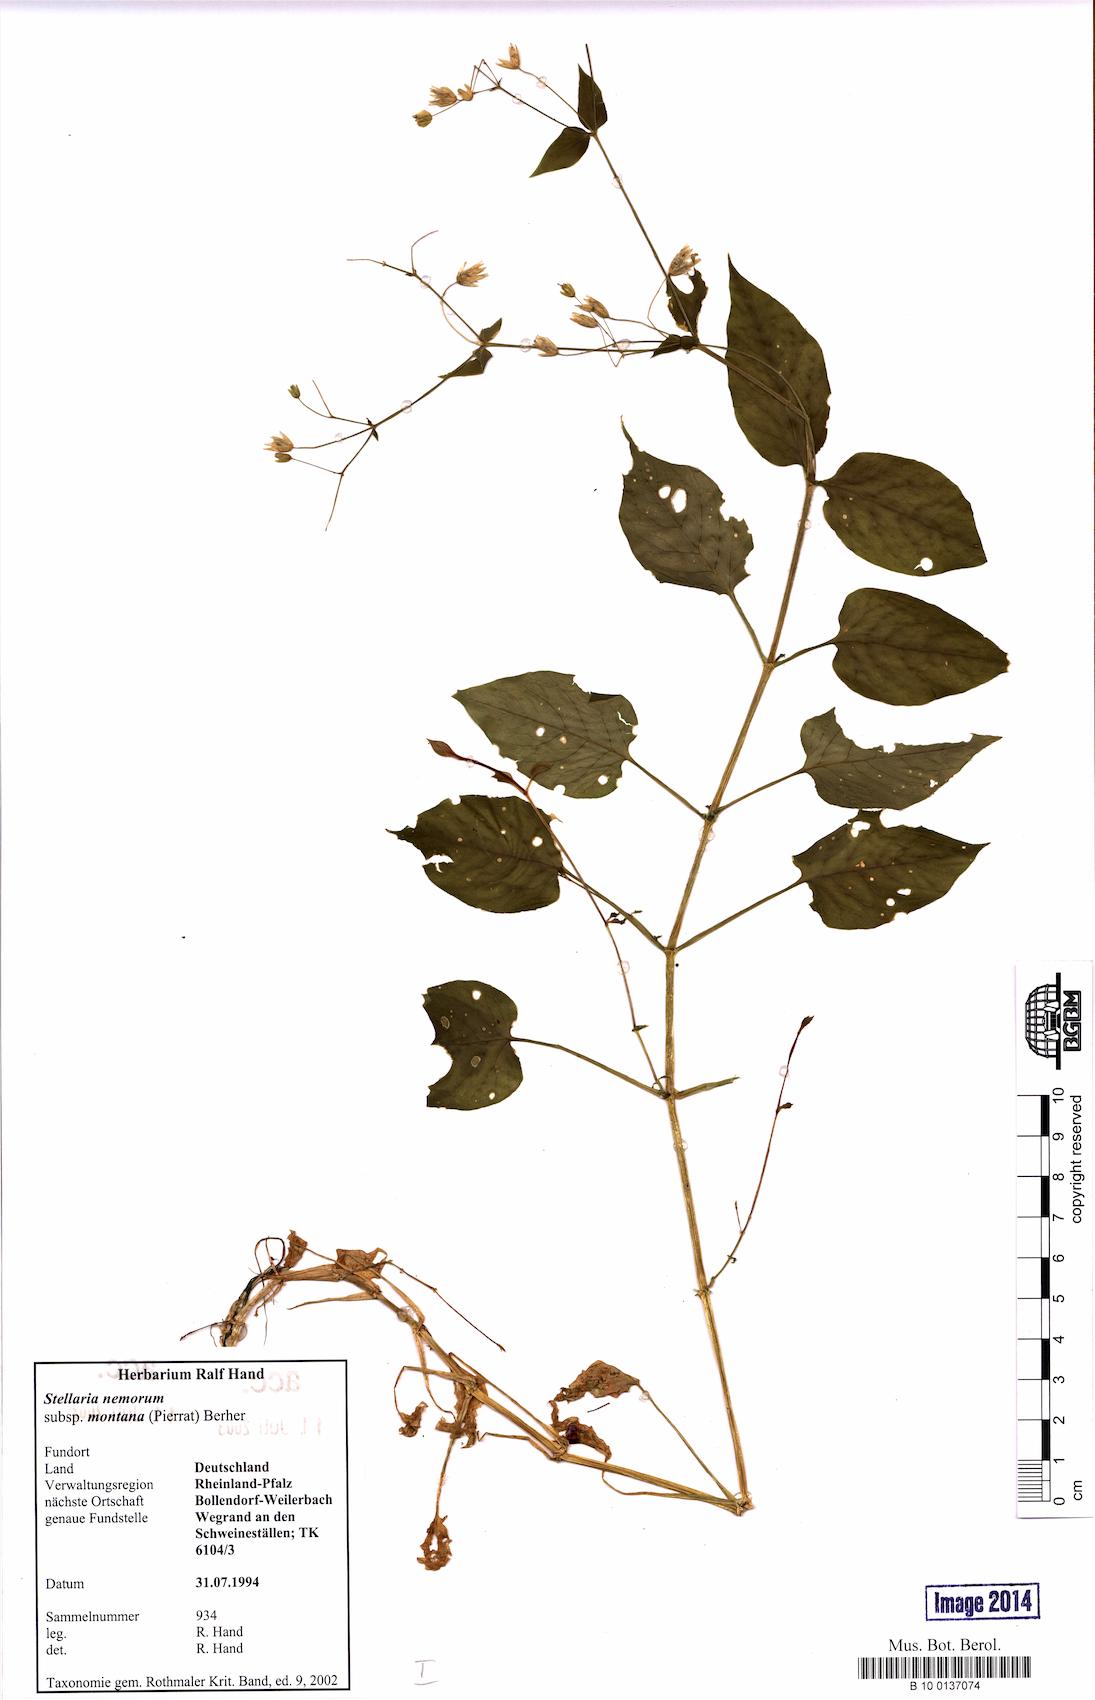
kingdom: Plantae
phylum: Tracheophyta
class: Magnoliopsida
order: Caryophyllales
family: Caryophyllaceae
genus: Stellaria
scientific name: Stellaria glochidisperma
